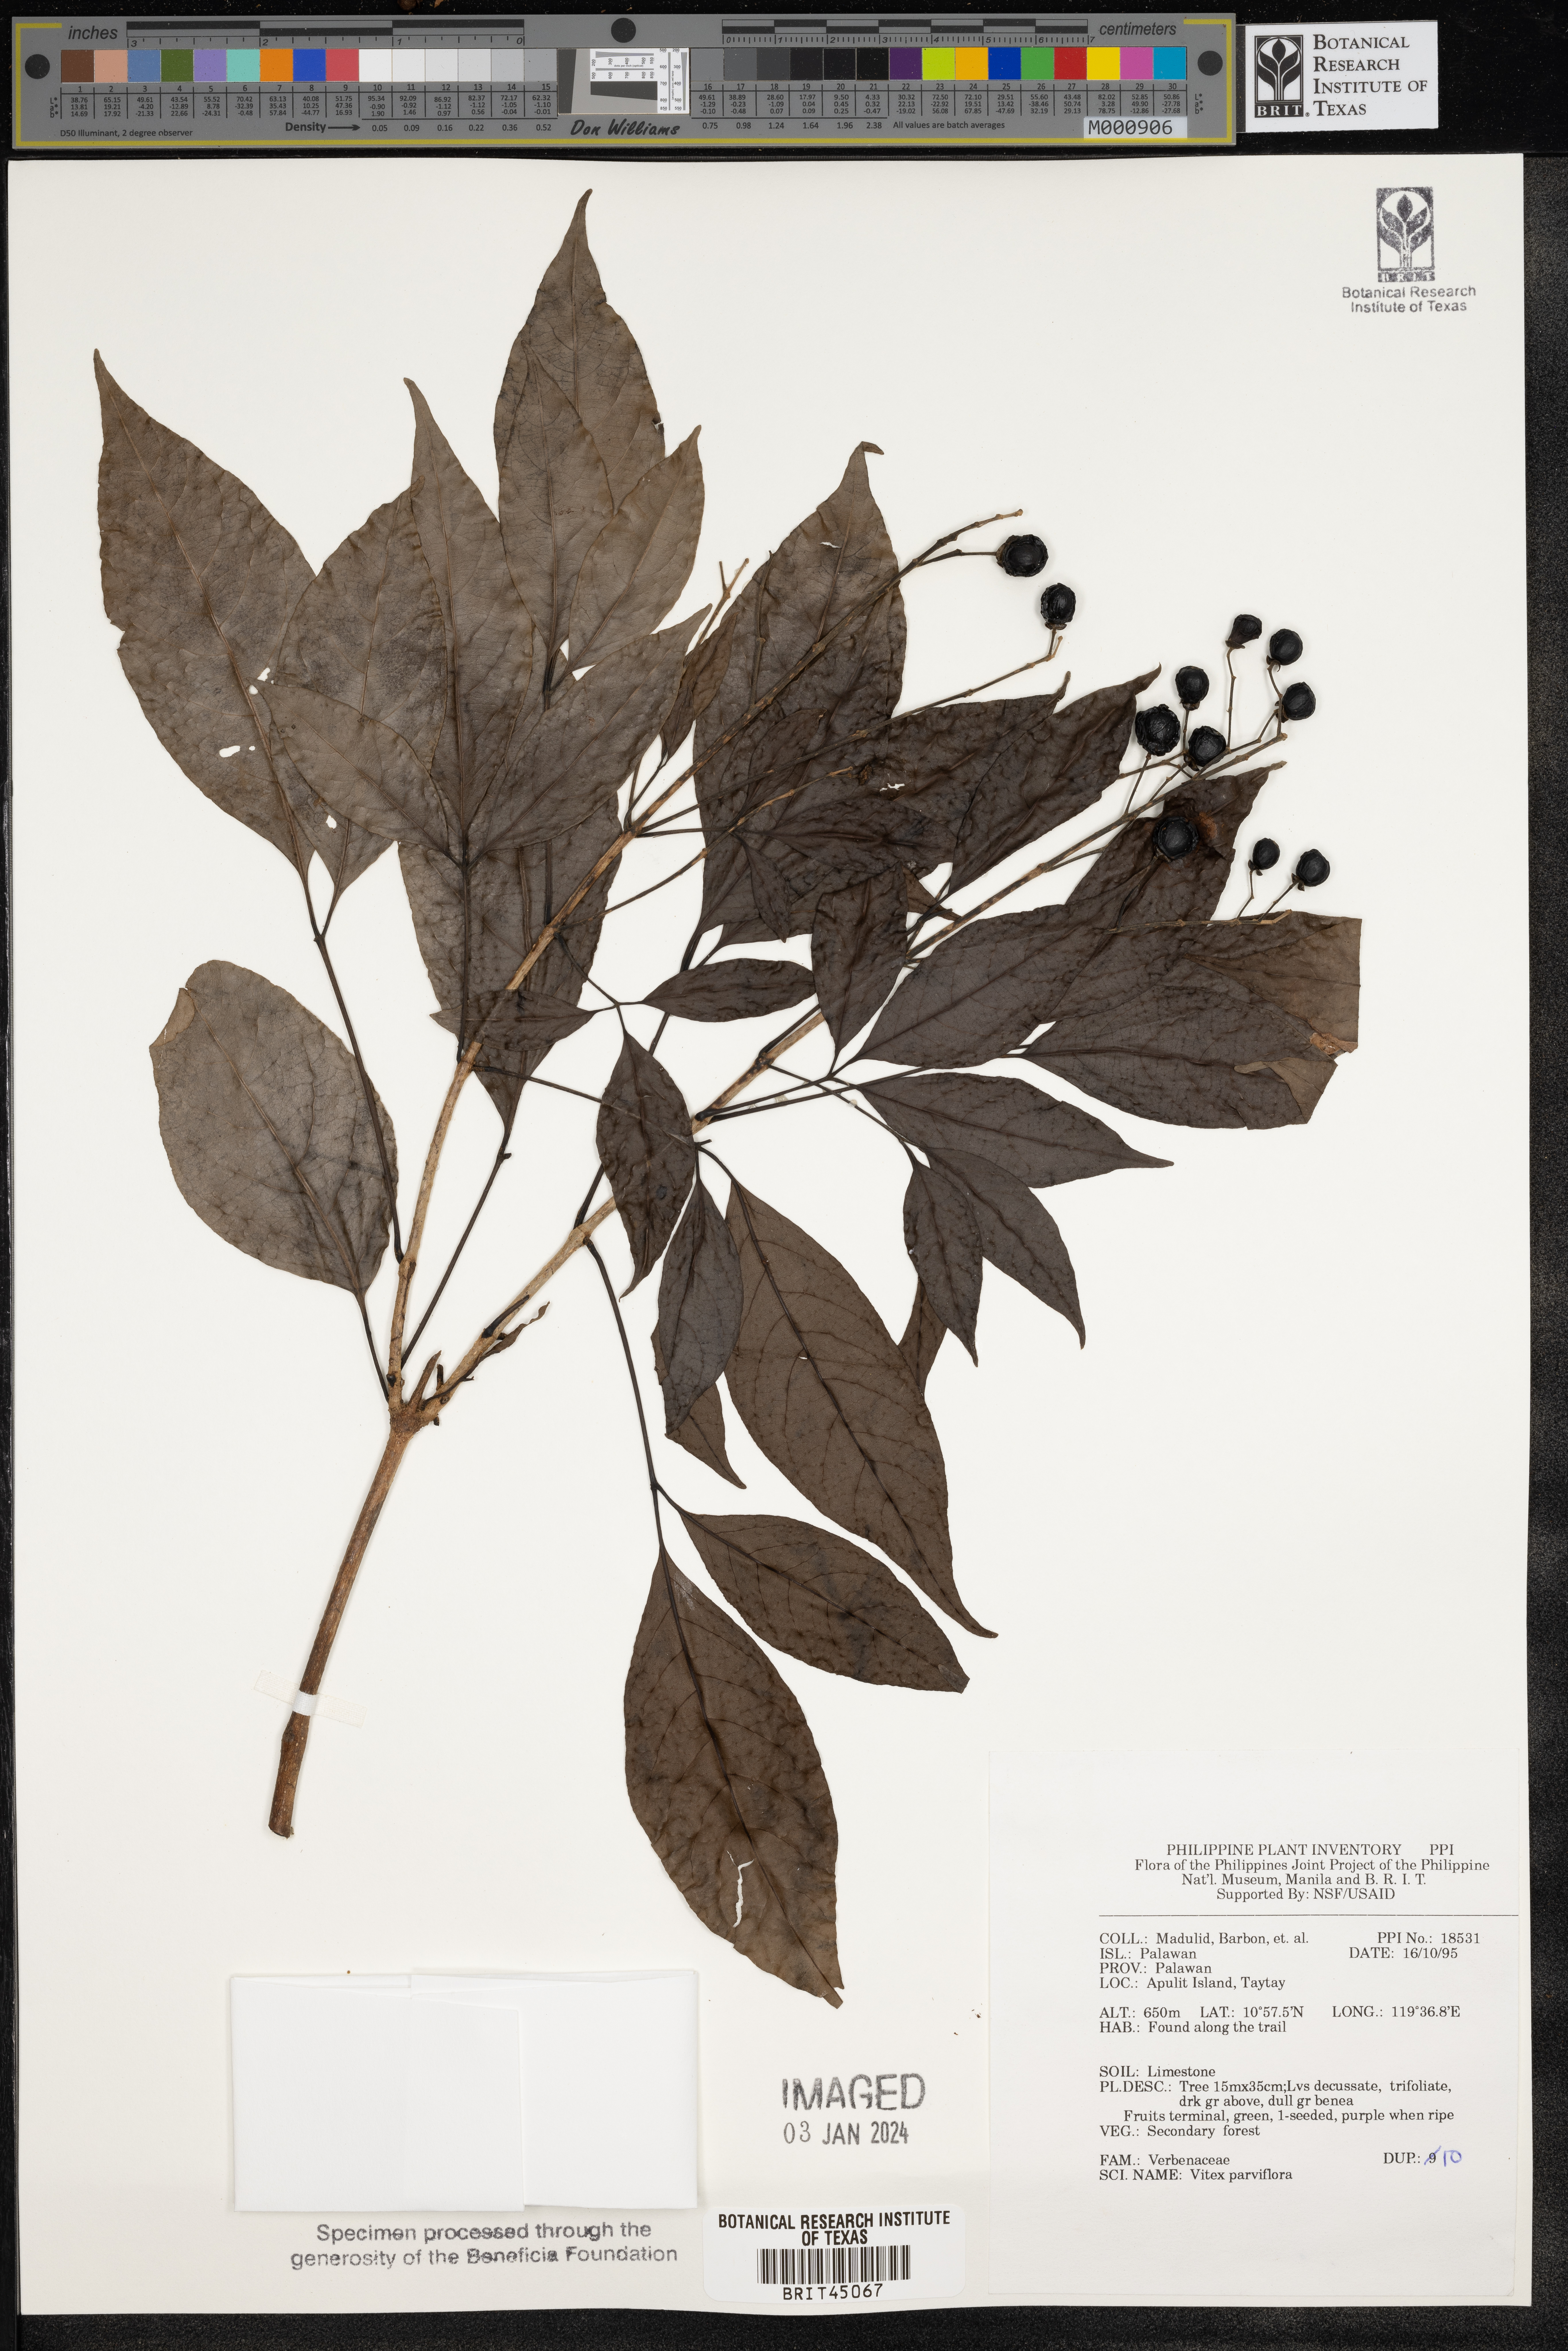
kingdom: Plantae
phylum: Tracheophyta
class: Magnoliopsida
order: Lamiales
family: Lamiaceae
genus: Vitex
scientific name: Vitex parviflora
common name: Smallflower chastetree
